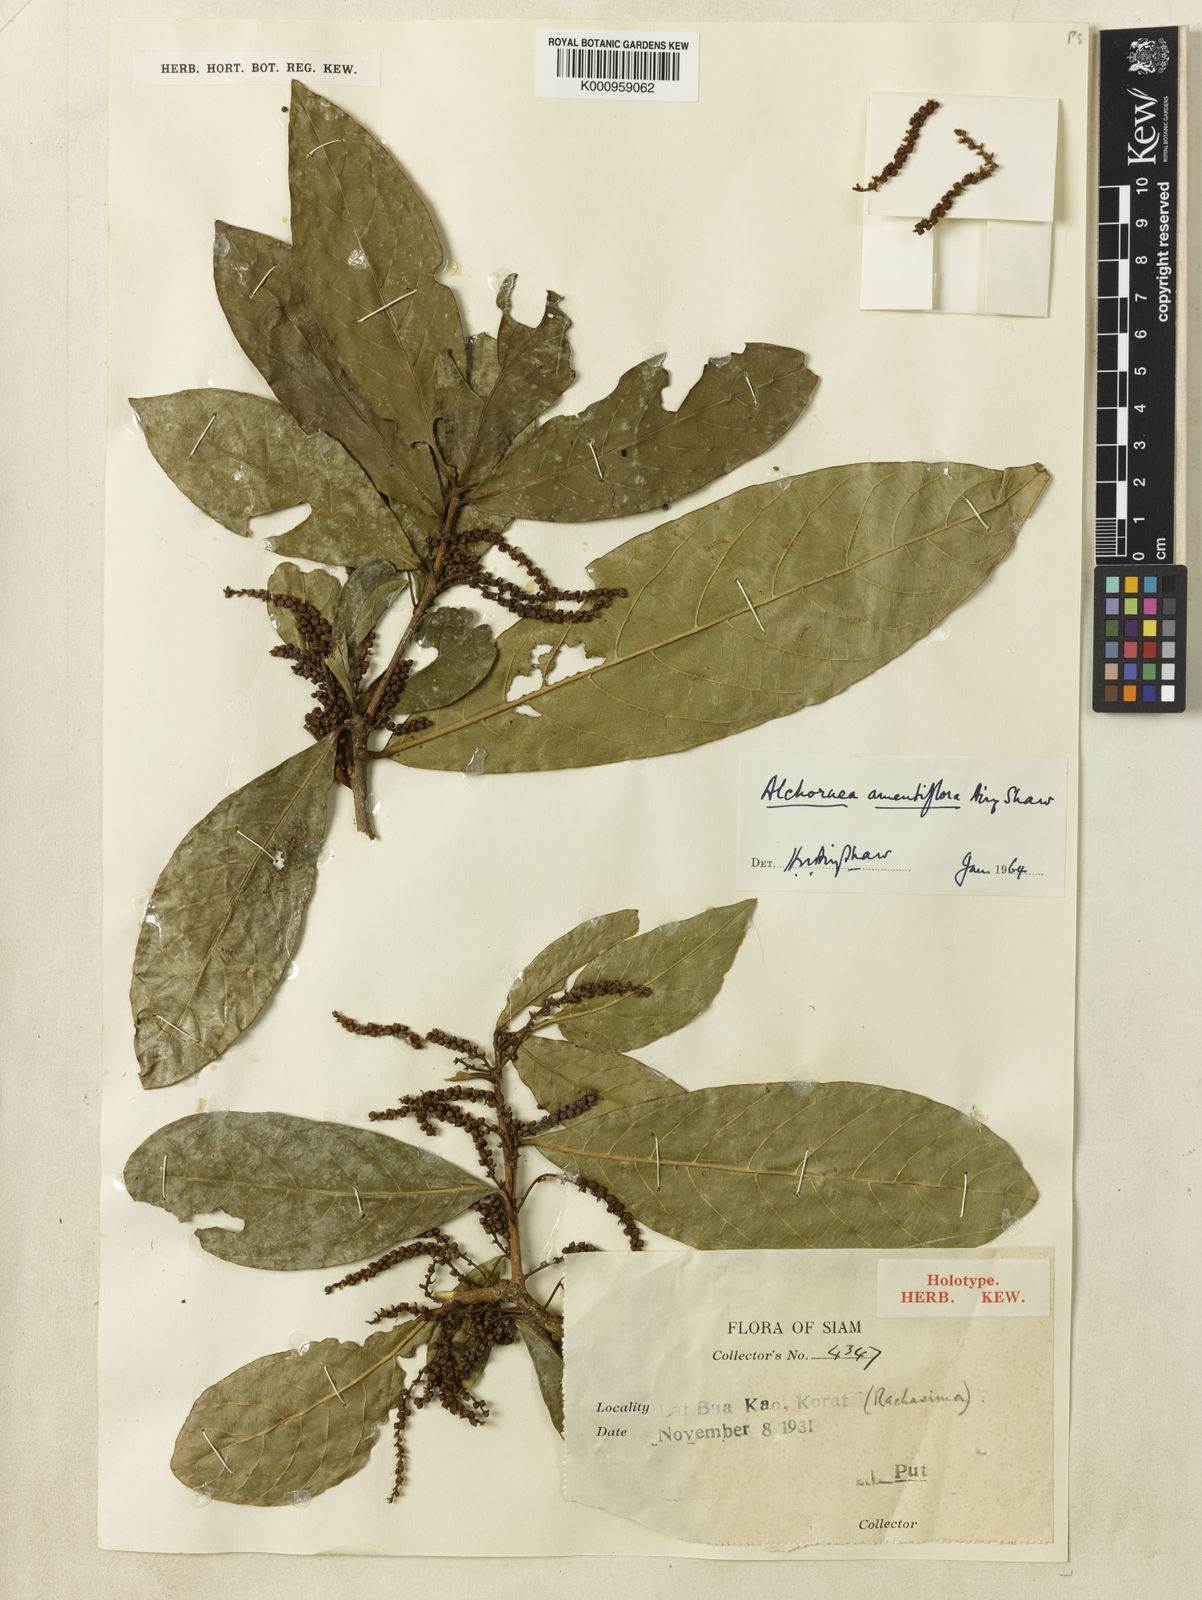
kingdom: Plantae
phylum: Tracheophyta
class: Magnoliopsida
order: Malpighiales
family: Euphorbiaceae
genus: Sampantaea
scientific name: Sampantaea amentiflora
